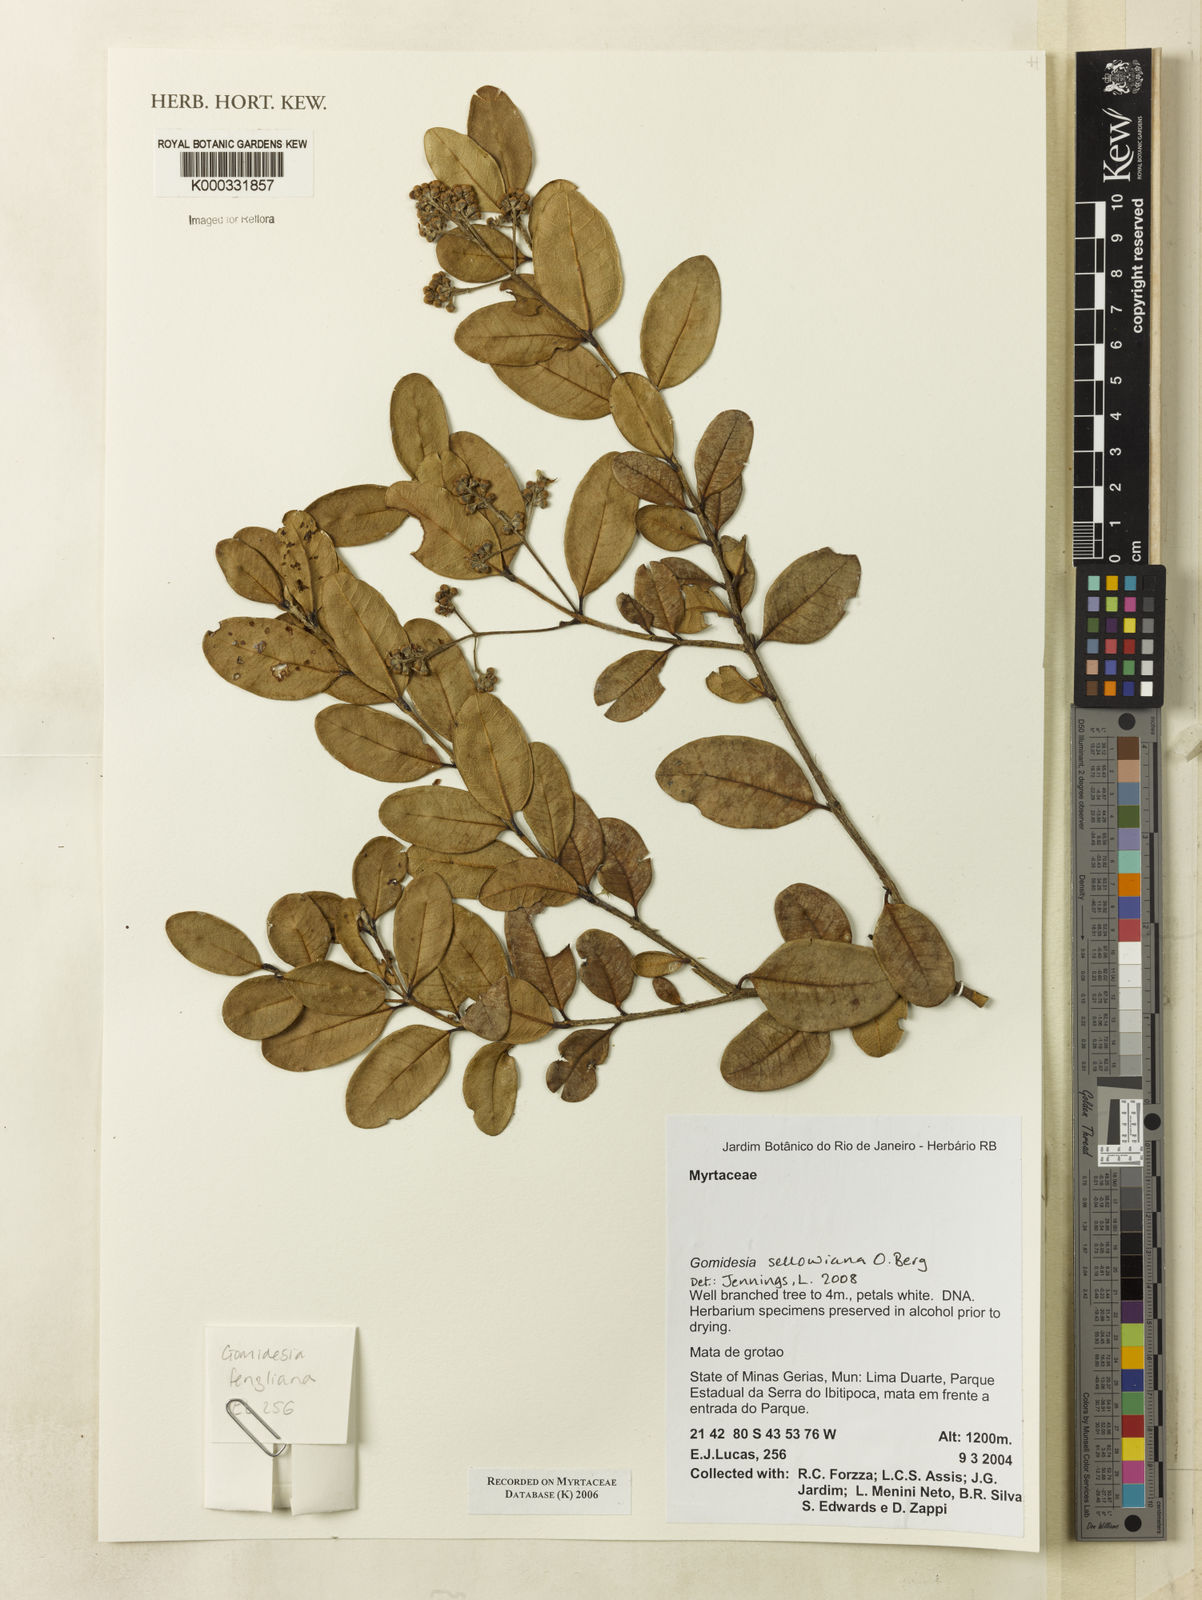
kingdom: Plantae
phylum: Tracheophyta
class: Magnoliopsida
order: Myrtales
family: Myrtaceae
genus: Myrcia
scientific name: Myrcia
